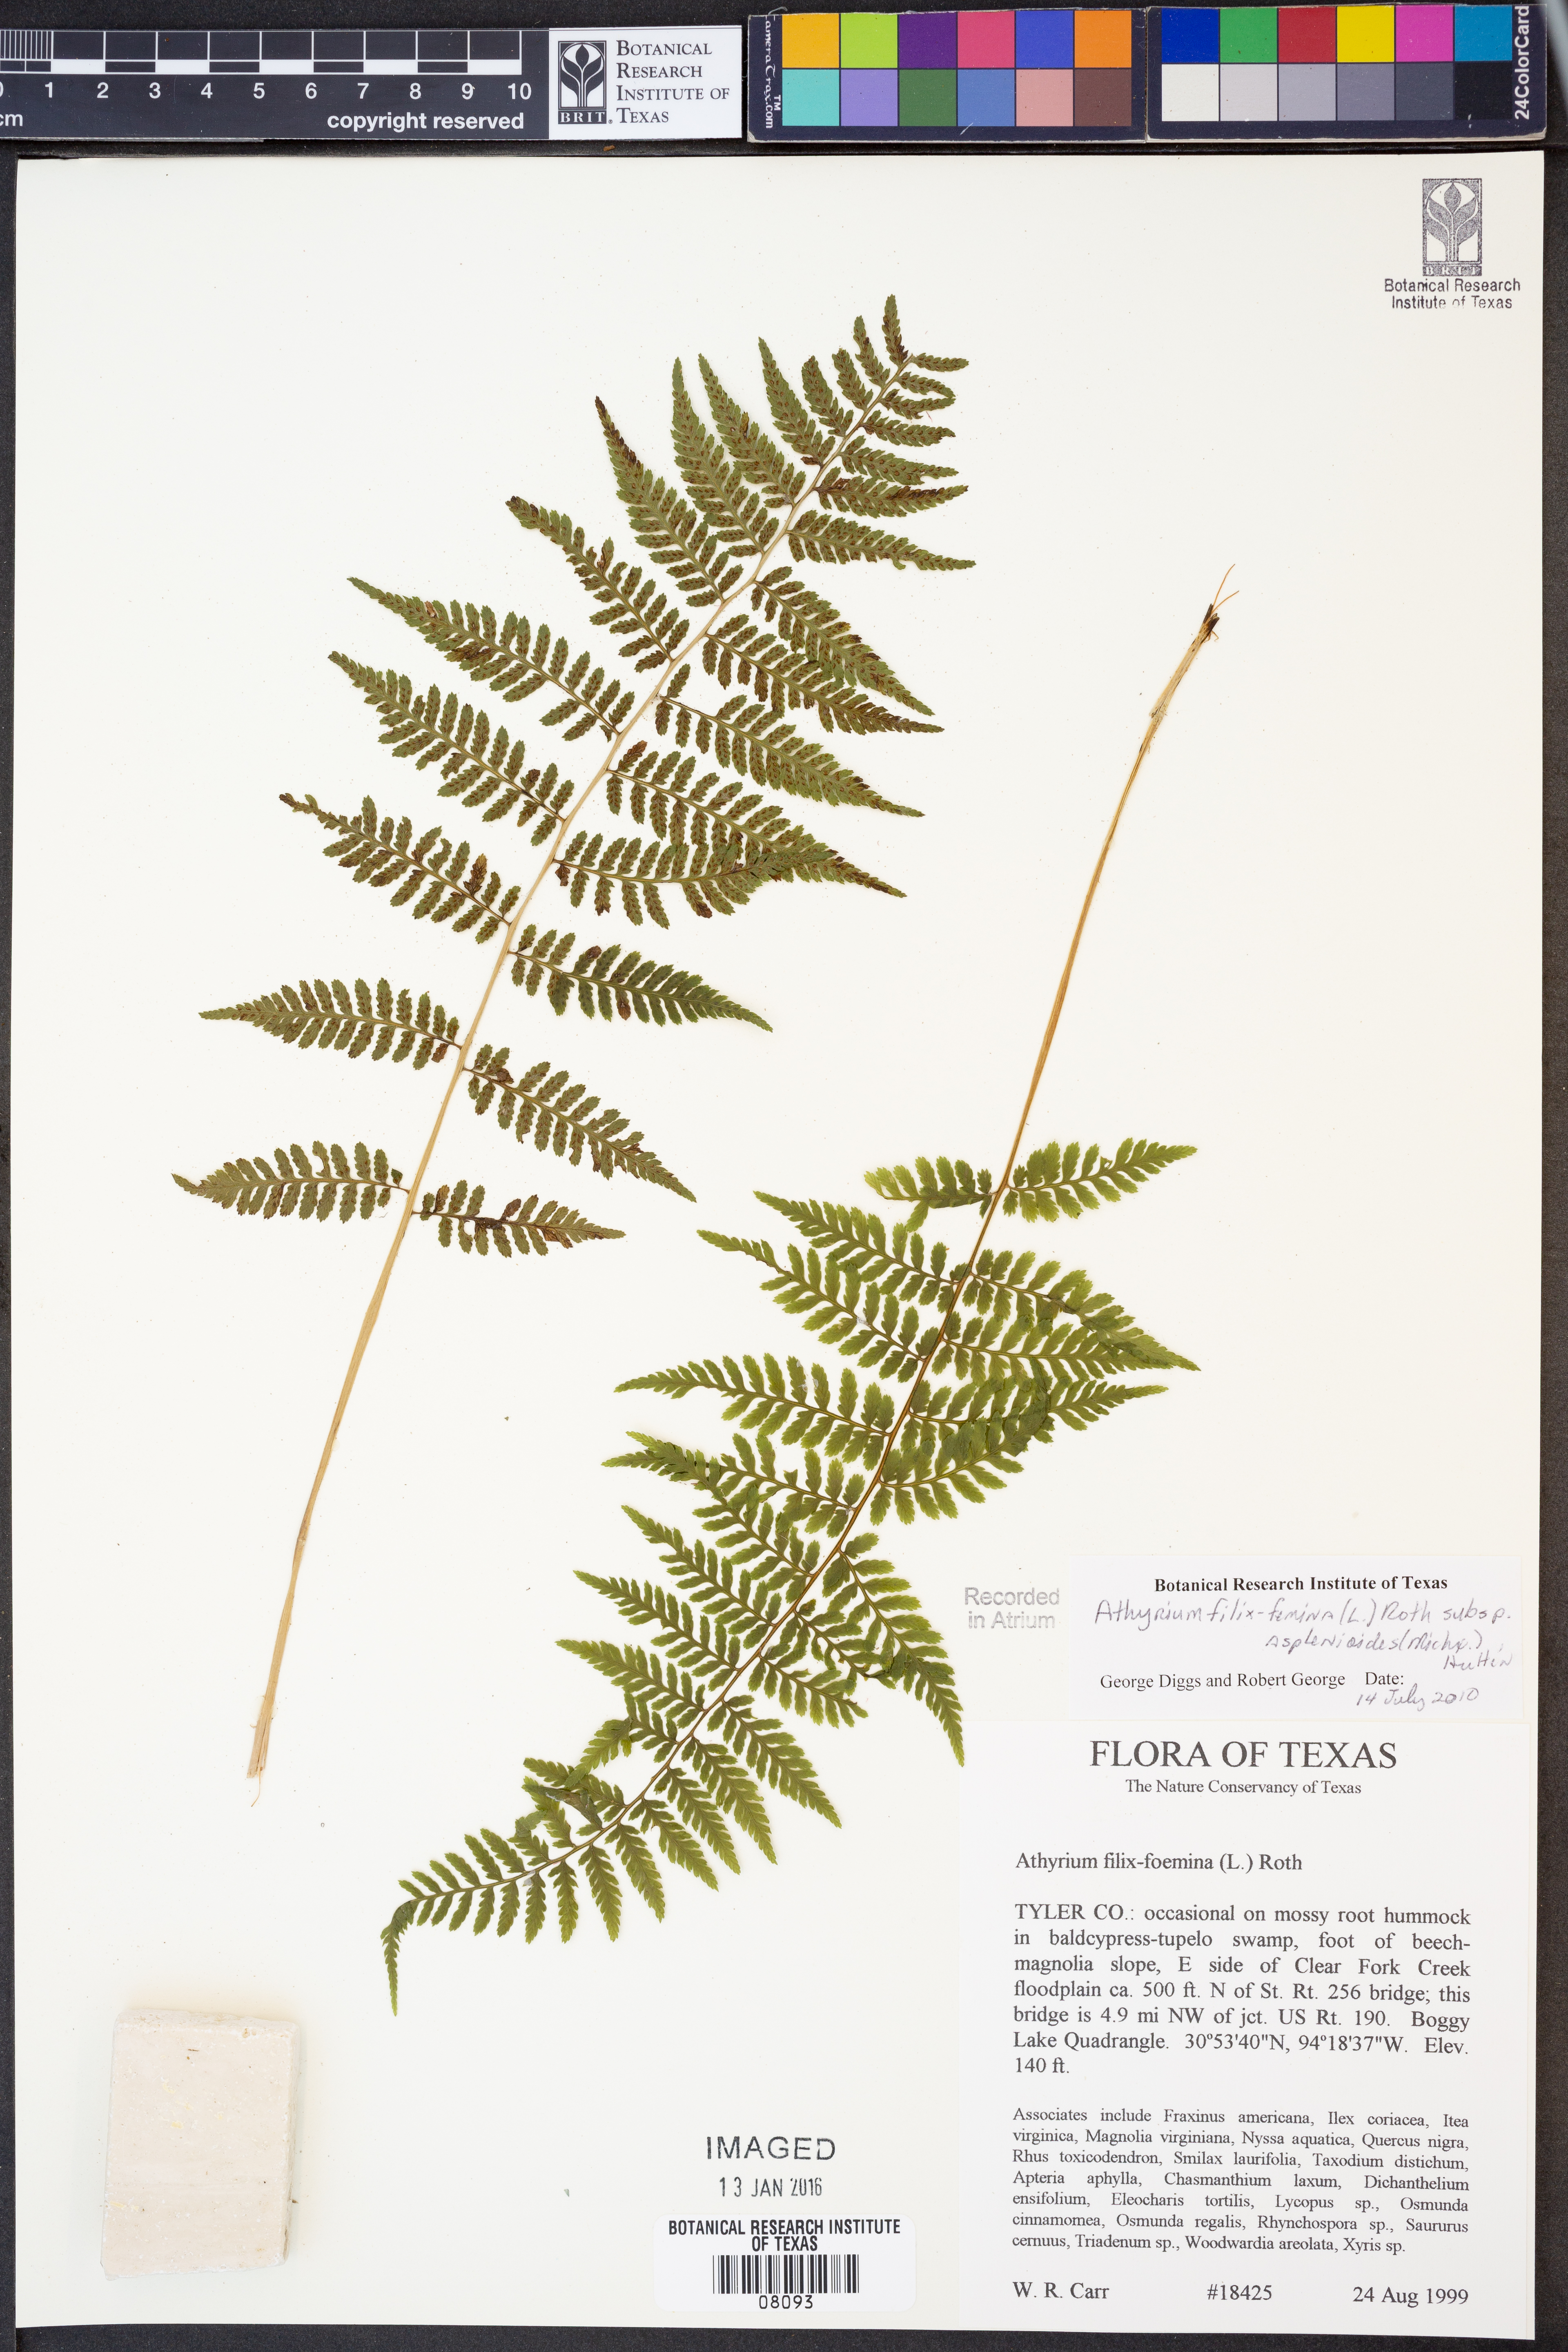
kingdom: Plantae
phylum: Tracheophyta
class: Polypodiopsida
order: Polypodiales
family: Athyriaceae
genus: Athyrium
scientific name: Athyrium asplenioides
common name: Southern lady fern
